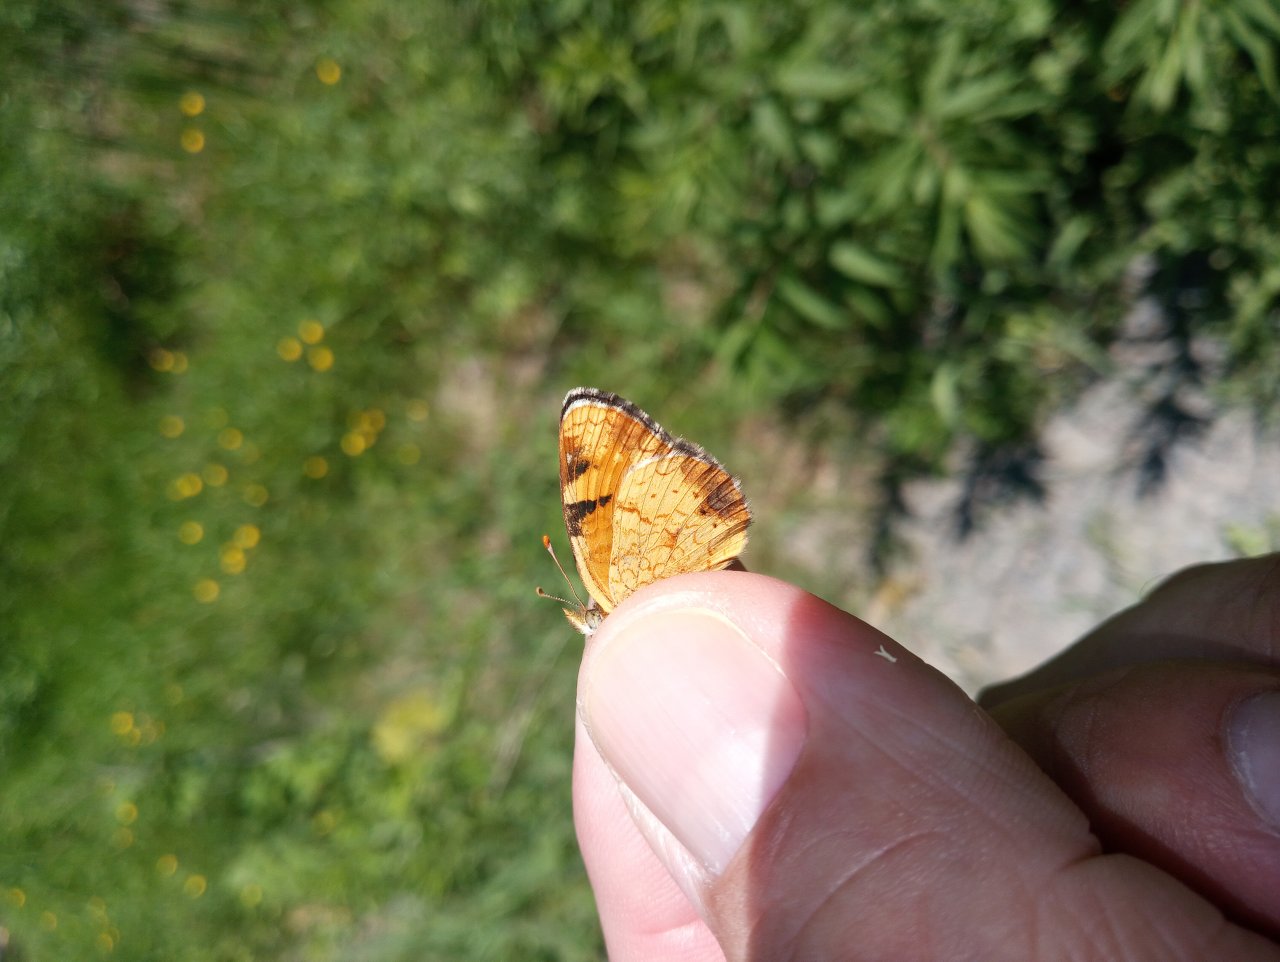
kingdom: Animalia
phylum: Arthropoda
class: Insecta
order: Lepidoptera
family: Nymphalidae
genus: Phyciodes
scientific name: Phyciodes
